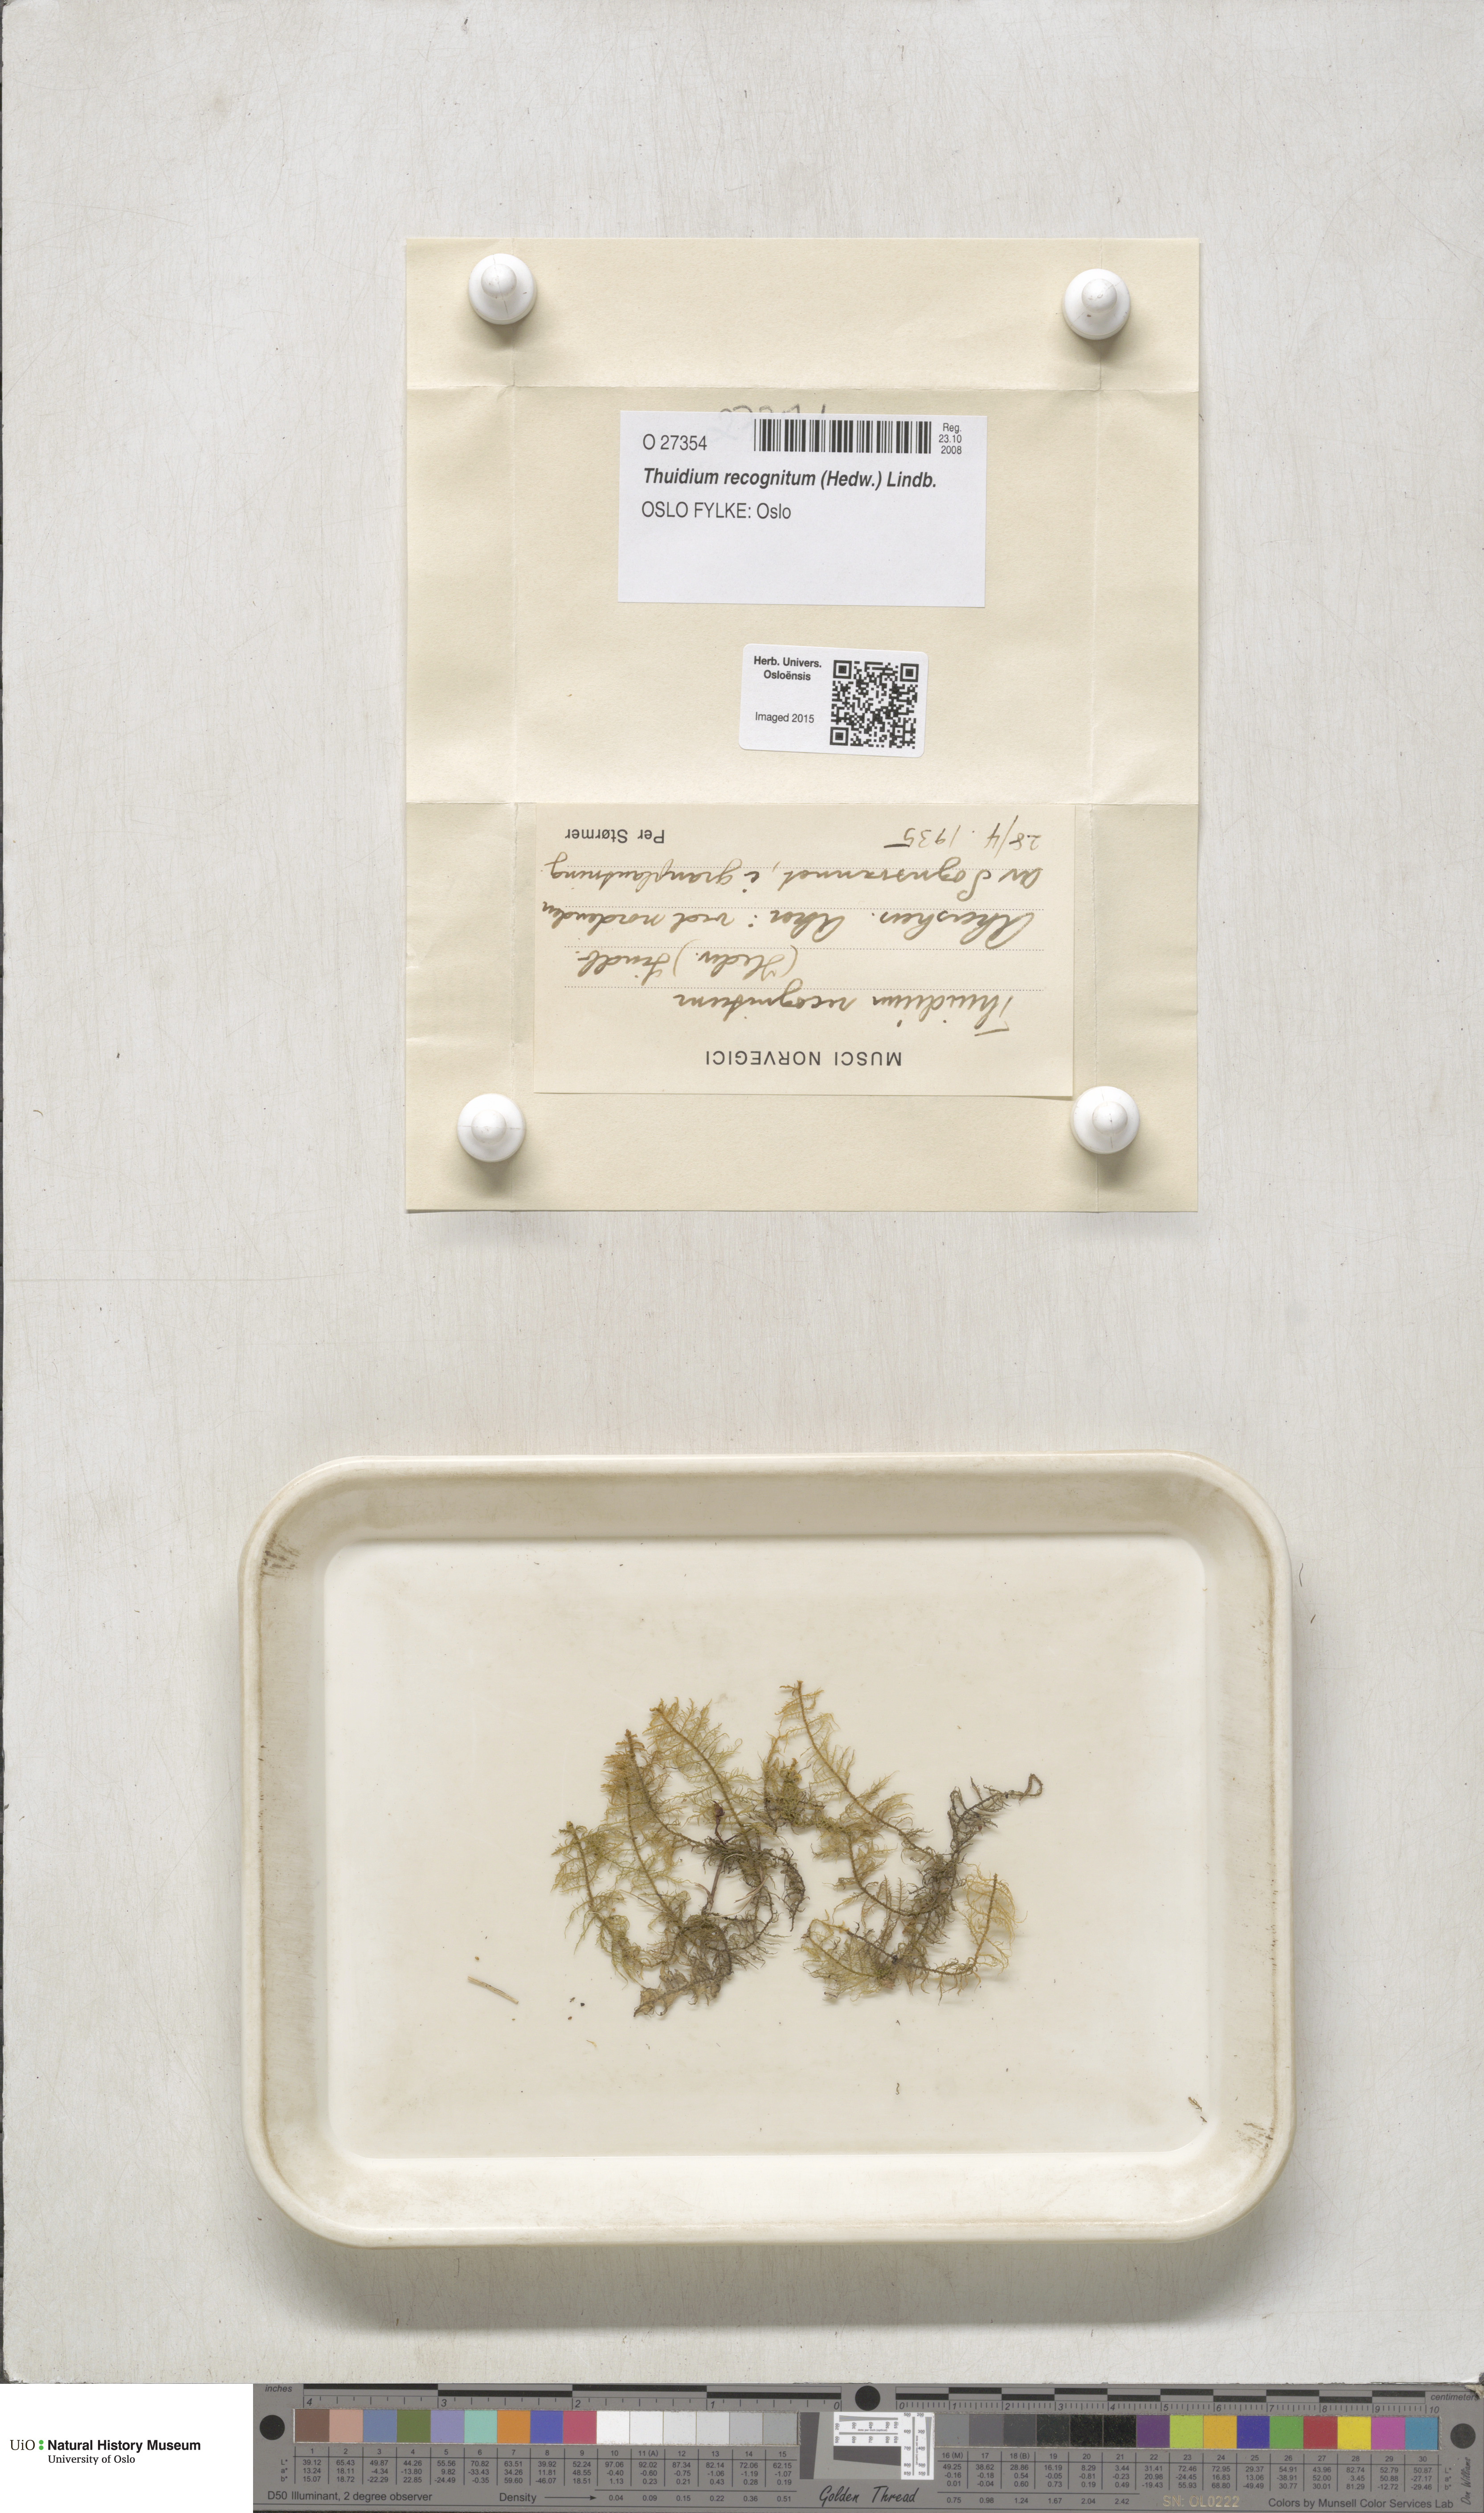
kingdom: Plantae
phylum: Bryophyta
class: Bryopsida
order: Hypnales
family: Thuidiaceae
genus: Thuidium
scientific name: Thuidium recognitum
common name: Hook-leaved fern moss
